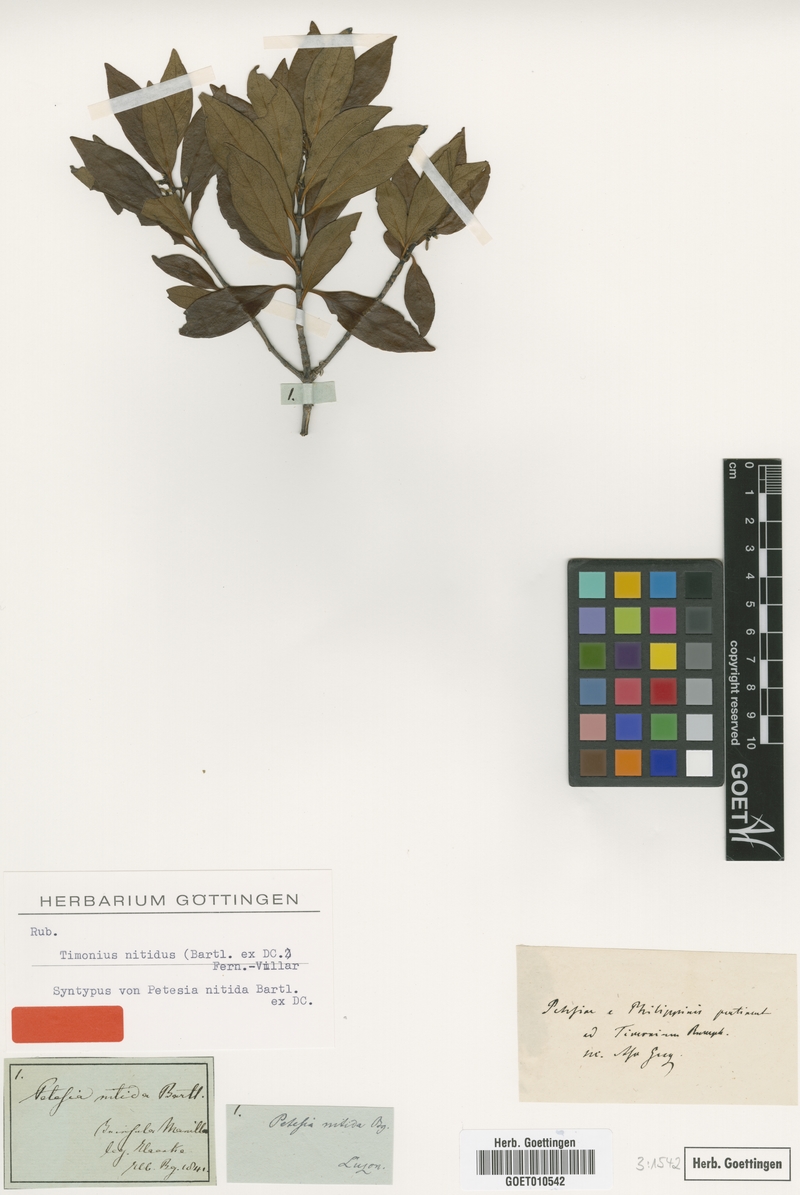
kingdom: Plantae
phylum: Tracheophyta
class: Magnoliopsida
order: Gentianales
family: Rubiaceae
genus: Timonius
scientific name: Timonius nitidus
